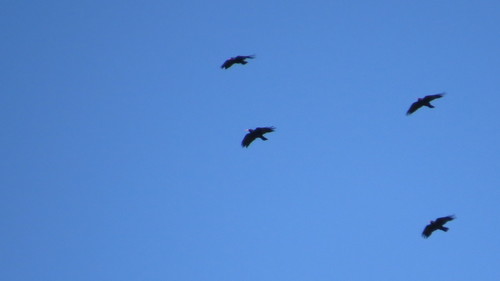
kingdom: Animalia
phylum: Chordata
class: Aves
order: Passeriformes
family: Corvidae
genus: Pyrrhocorax
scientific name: Pyrrhocorax pyrrhocorax
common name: Red-billed chough
